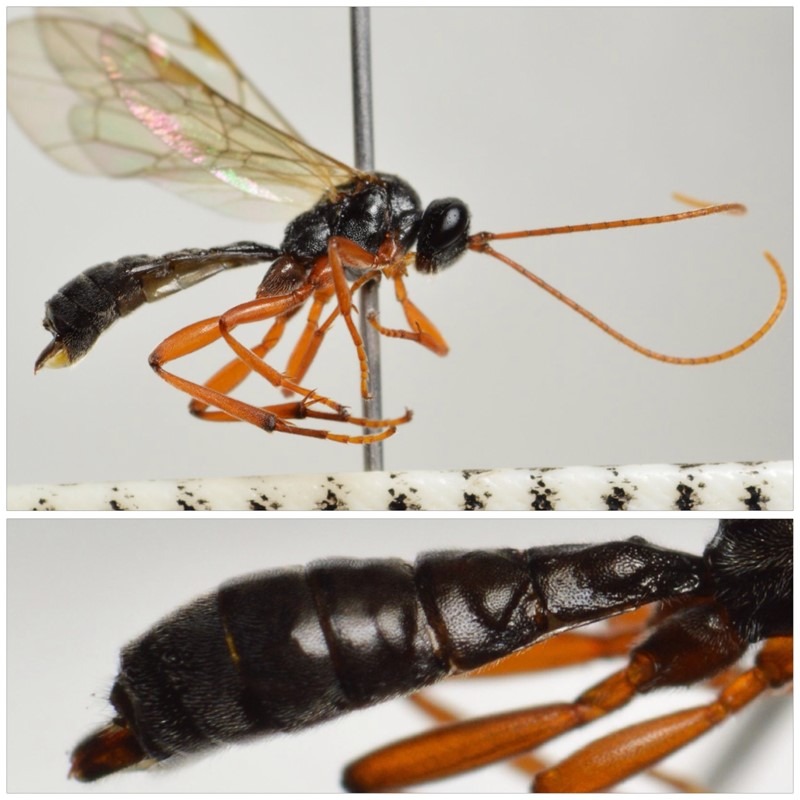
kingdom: Animalia
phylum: Arthropoda
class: Insecta
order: Hymenoptera
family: Ichneumonidae
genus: Dyspetes
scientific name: Dyspetes arrogator
